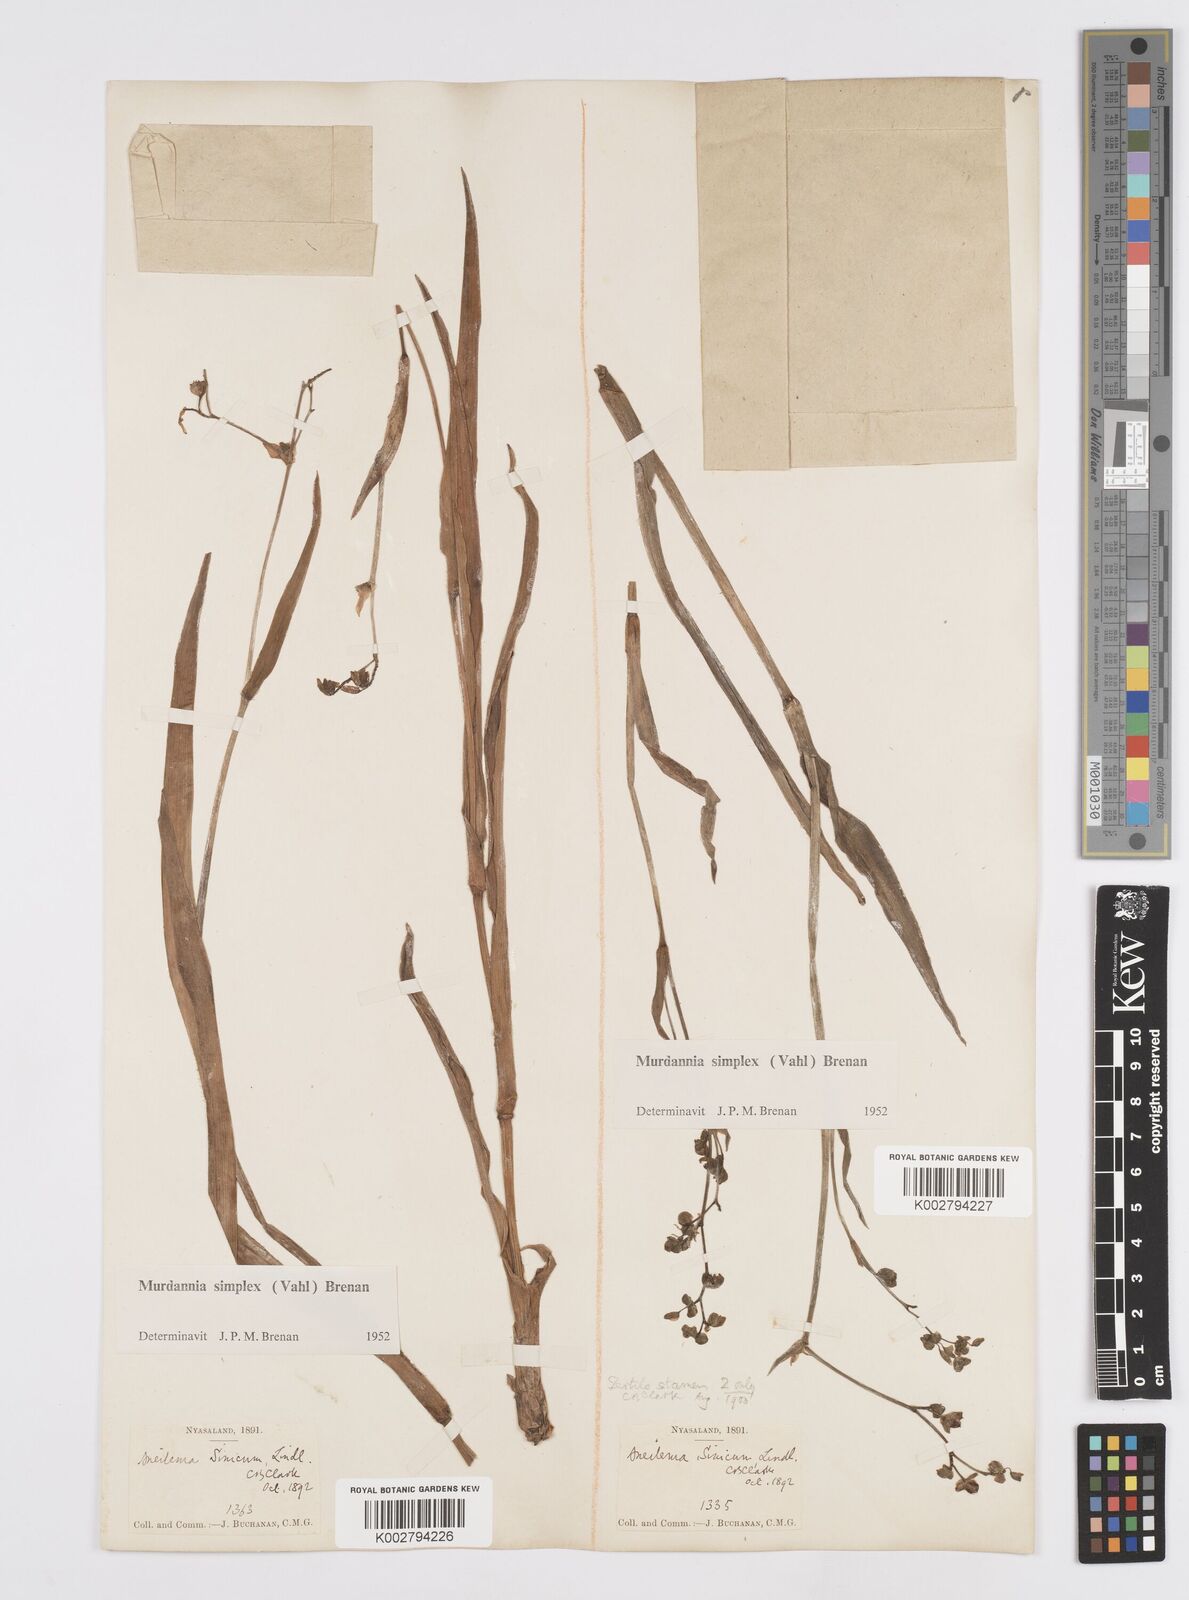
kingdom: Plantae
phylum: Tracheophyta
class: Liliopsida
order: Commelinales
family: Commelinaceae
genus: Murdannia
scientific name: Murdannia simplex
